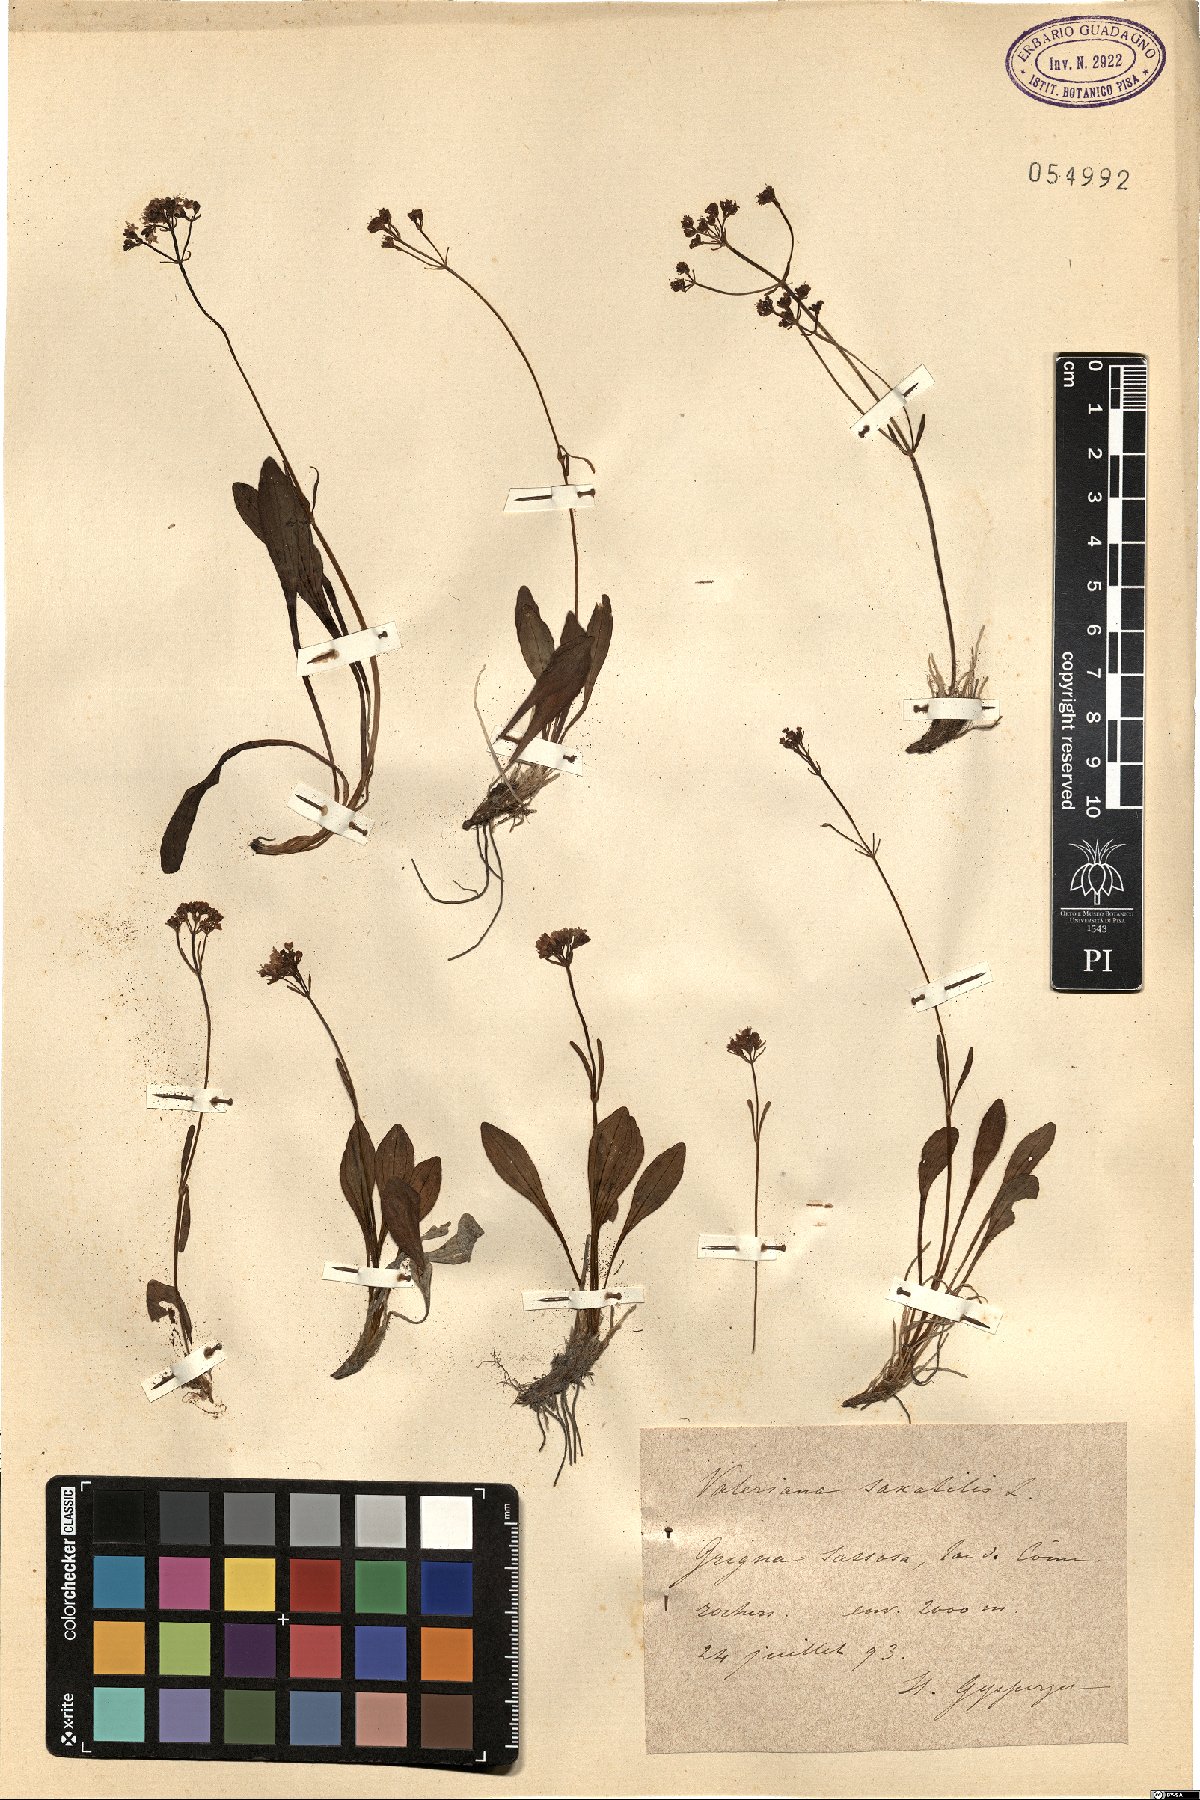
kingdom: Plantae
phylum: Tracheophyta
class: Magnoliopsida
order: Dipsacales
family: Caprifoliaceae
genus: Valeriana
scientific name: Valeriana saxatilis
